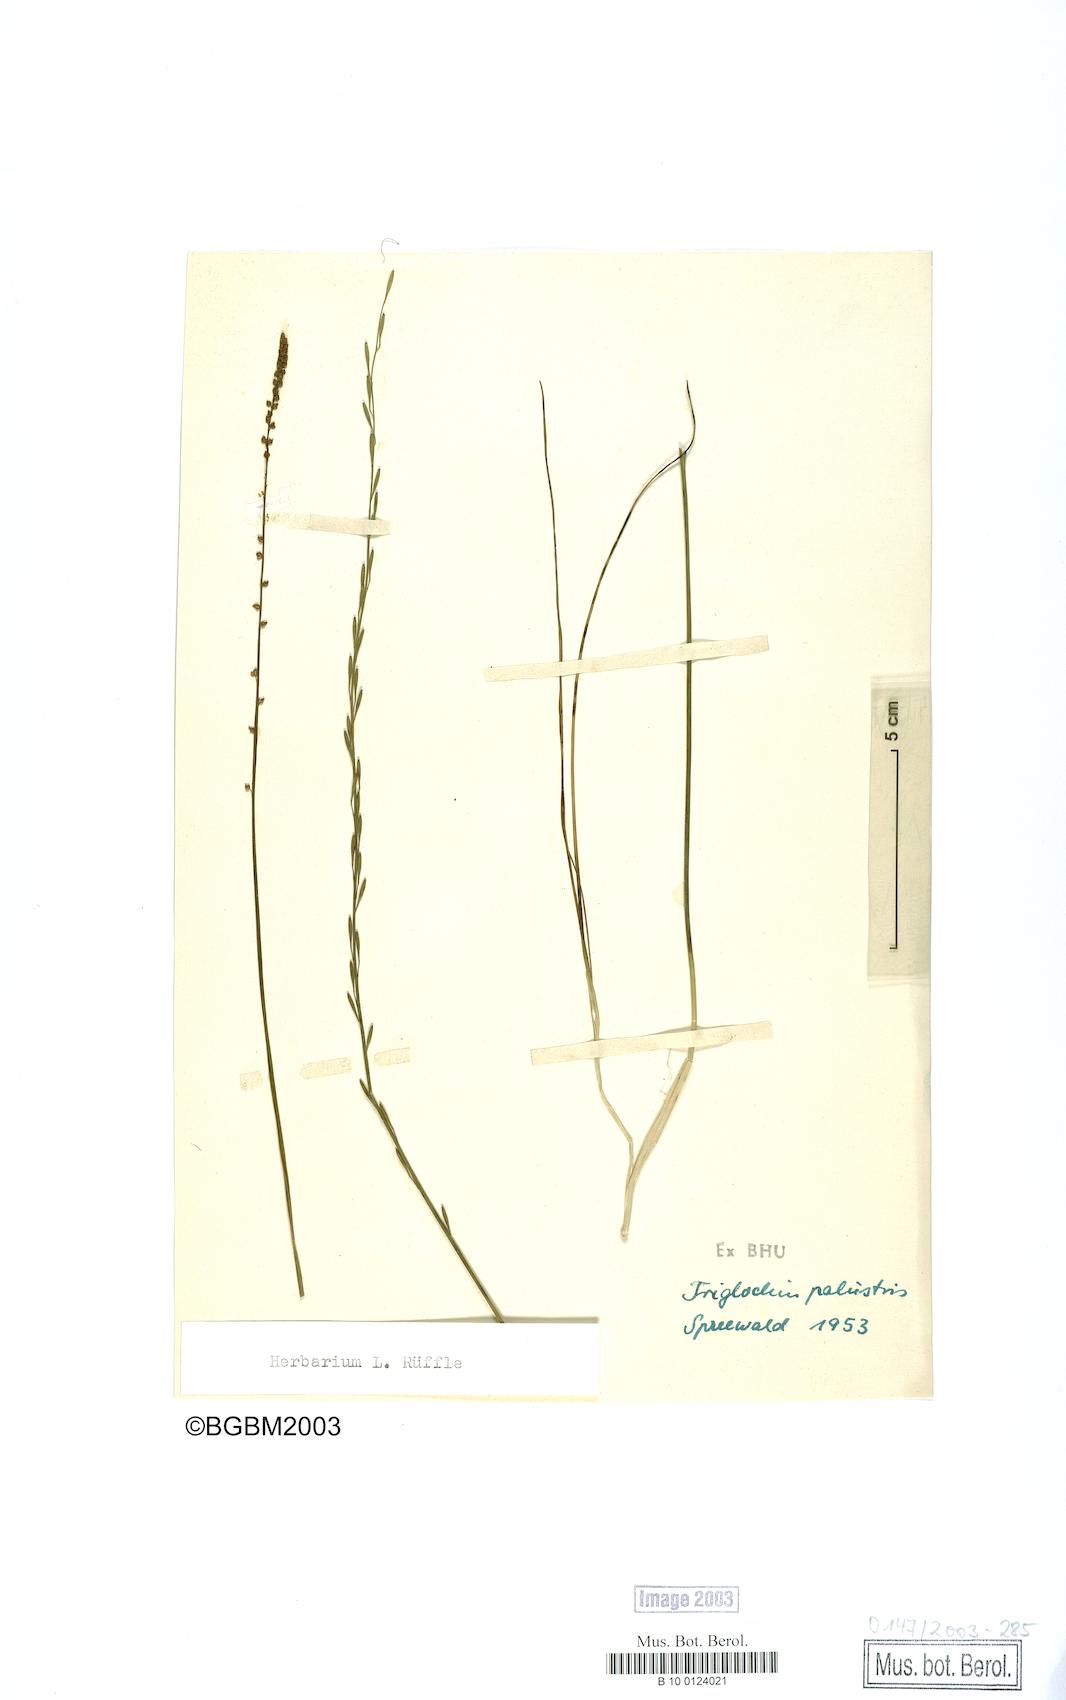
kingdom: Plantae
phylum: Tracheophyta
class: Liliopsida
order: Alismatales
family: Juncaginaceae
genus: Triglochin
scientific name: Triglochin palustris
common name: Marsh arrowgrass
